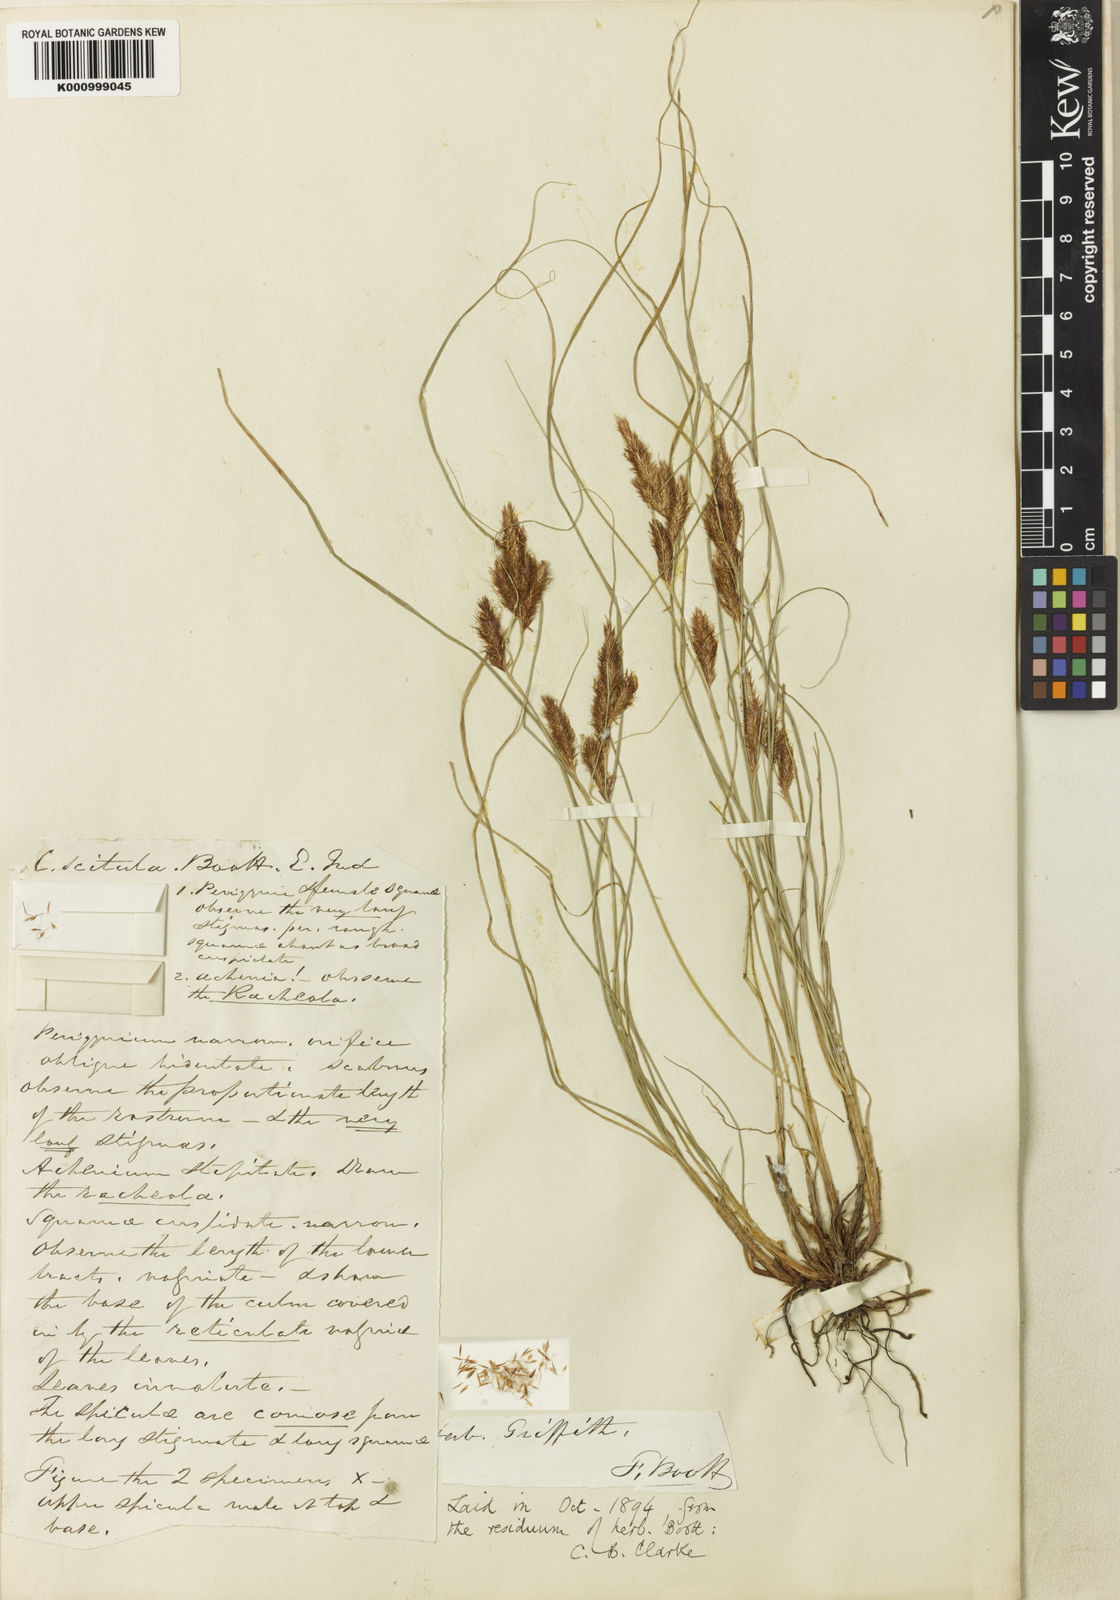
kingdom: Plantae
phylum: Tracheophyta
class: Liliopsida
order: Poales
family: Cyperaceae
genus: Carex
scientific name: Carex scitula
